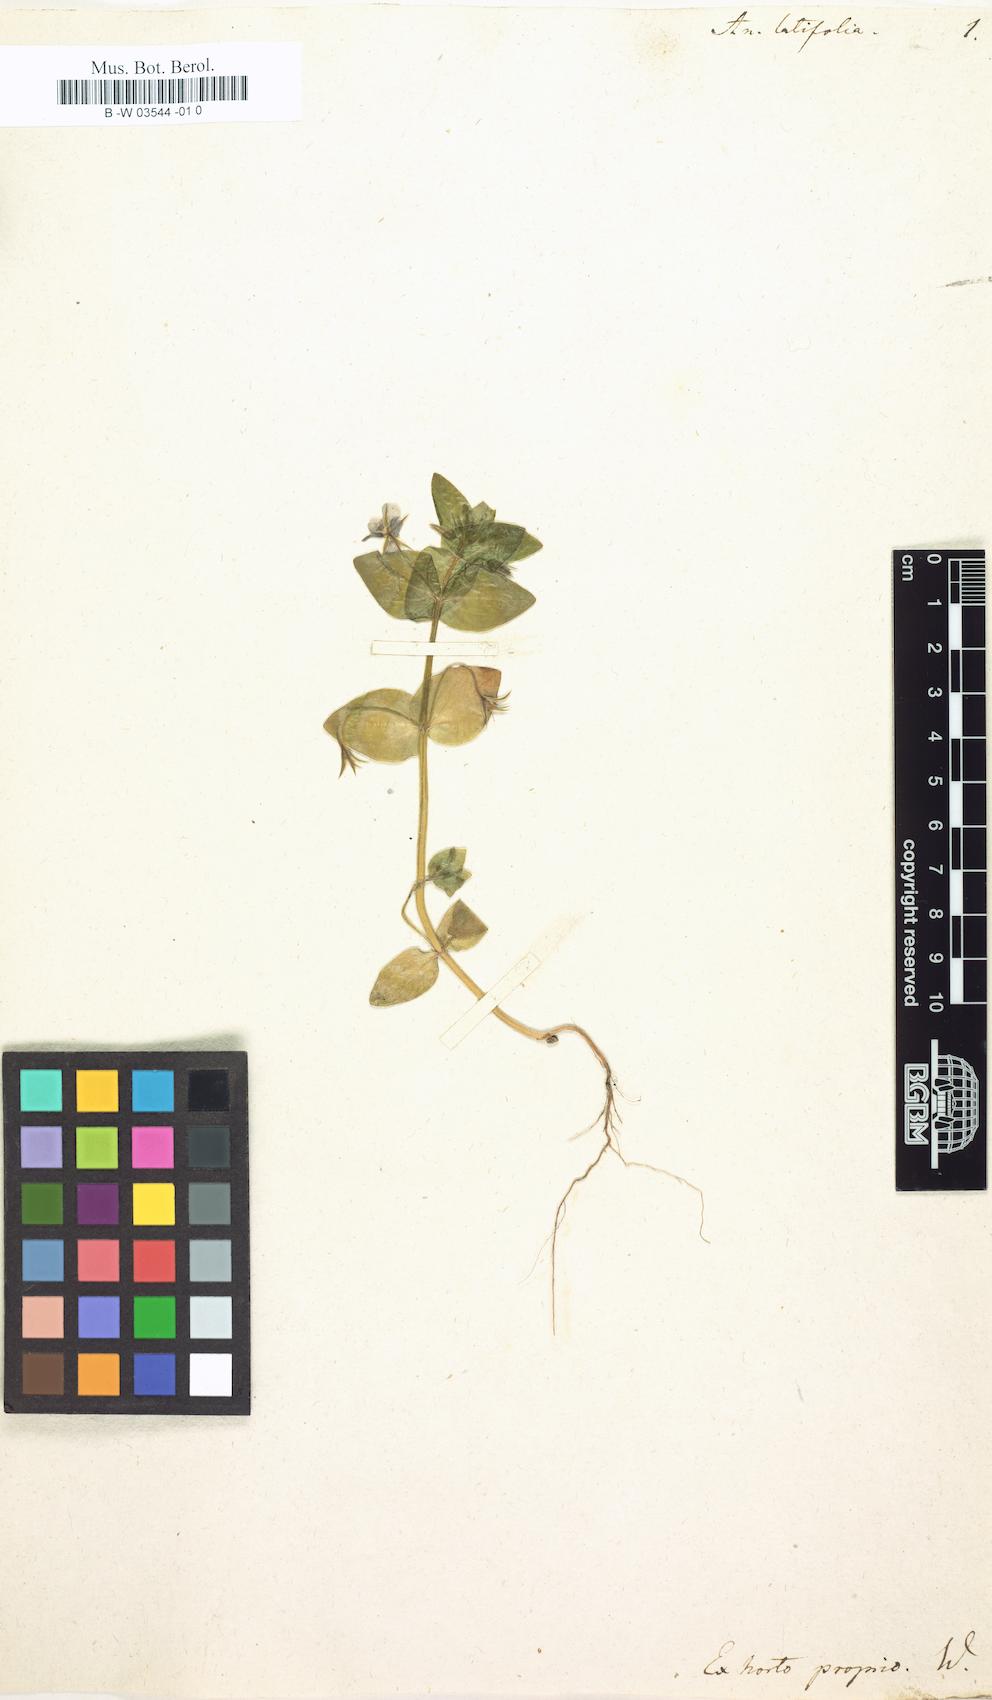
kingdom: Plantae
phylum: Tracheophyta
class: Magnoliopsida
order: Ericales
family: Primulaceae
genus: Lysimachia
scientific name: Lysimachia loeflingii
